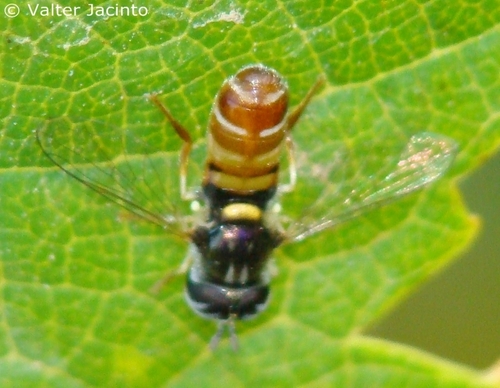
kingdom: Animalia
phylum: Arthropoda
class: Insecta
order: Diptera
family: Syrphidae
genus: Paragus
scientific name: Paragus
